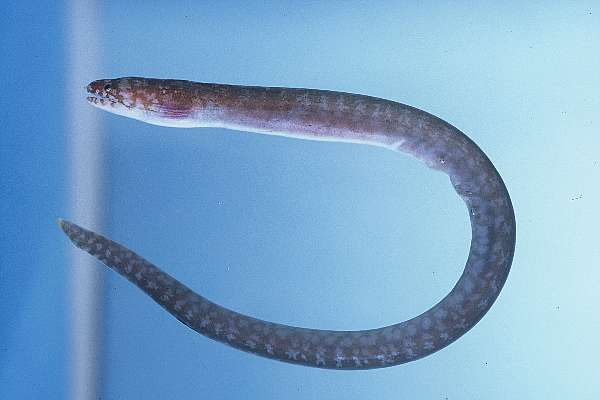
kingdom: Animalia
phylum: Chordata
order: Anguilliformes
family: Muraenidae
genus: Anarchias
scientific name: Anarchias seychellensis
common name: Seychelles moray
